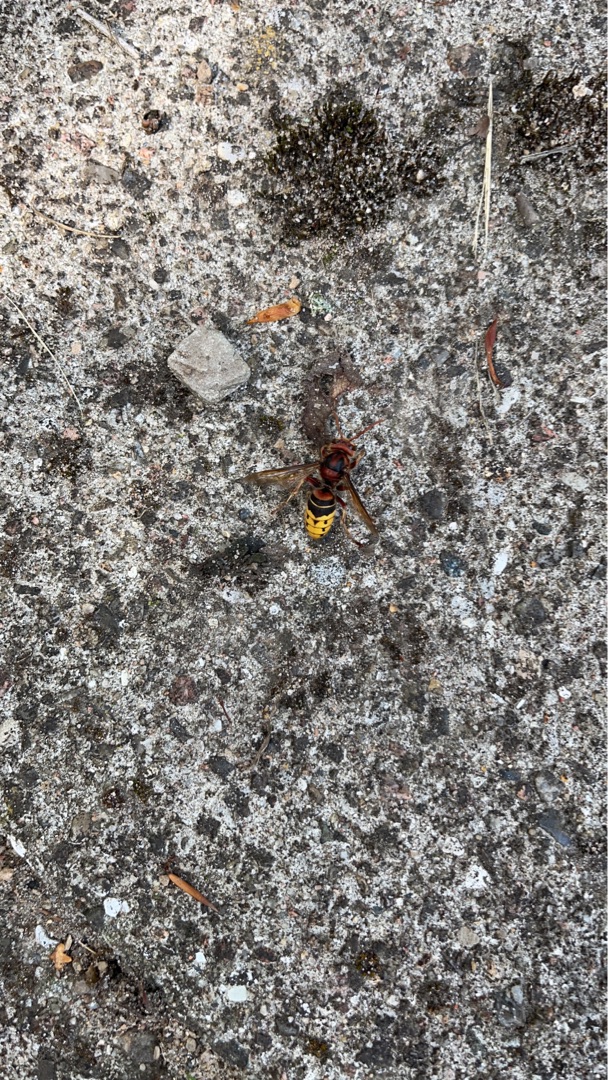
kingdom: Animalia
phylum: Arthropoda
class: Insecta
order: Hymenoptera
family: Vespidae
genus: Vespa
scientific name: Vespa crabro
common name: Stor gedehams
